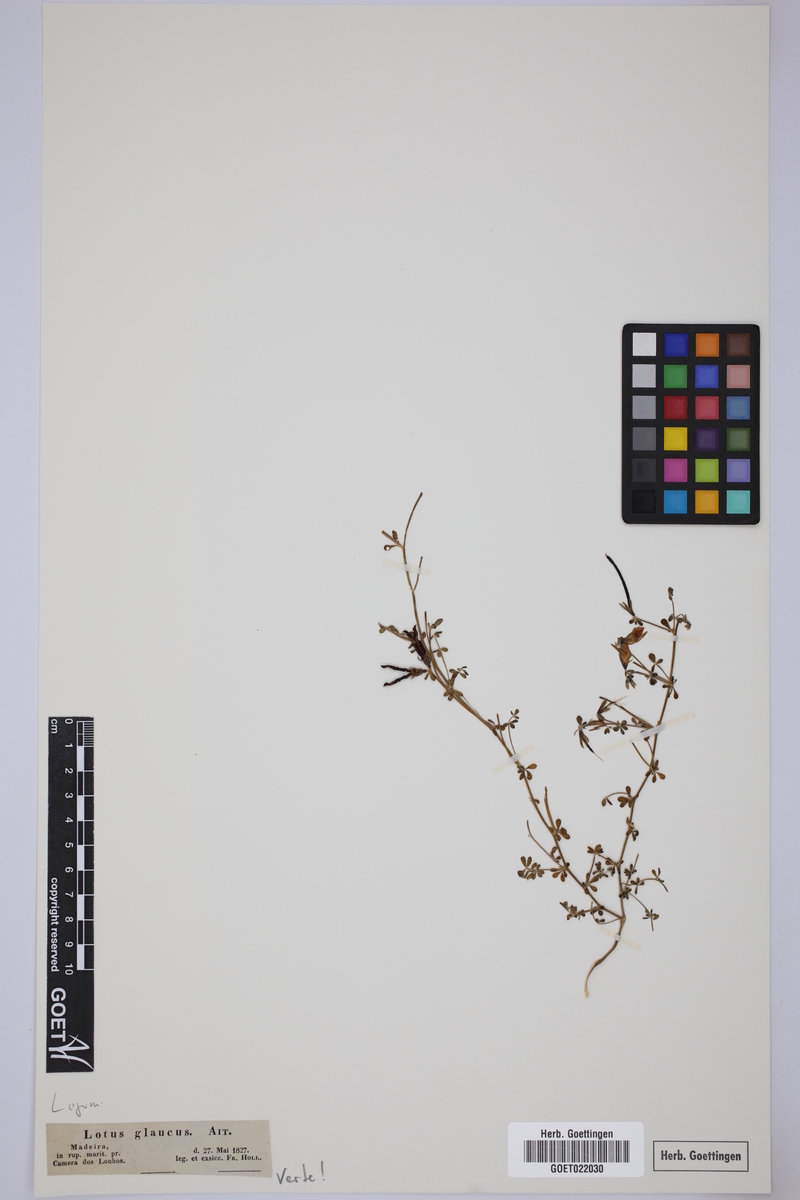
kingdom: Plantae
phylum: Tracheophyta
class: Magnoliopsida
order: Fabales
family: Fabaceae
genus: Lotus
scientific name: Lotus glaucus
